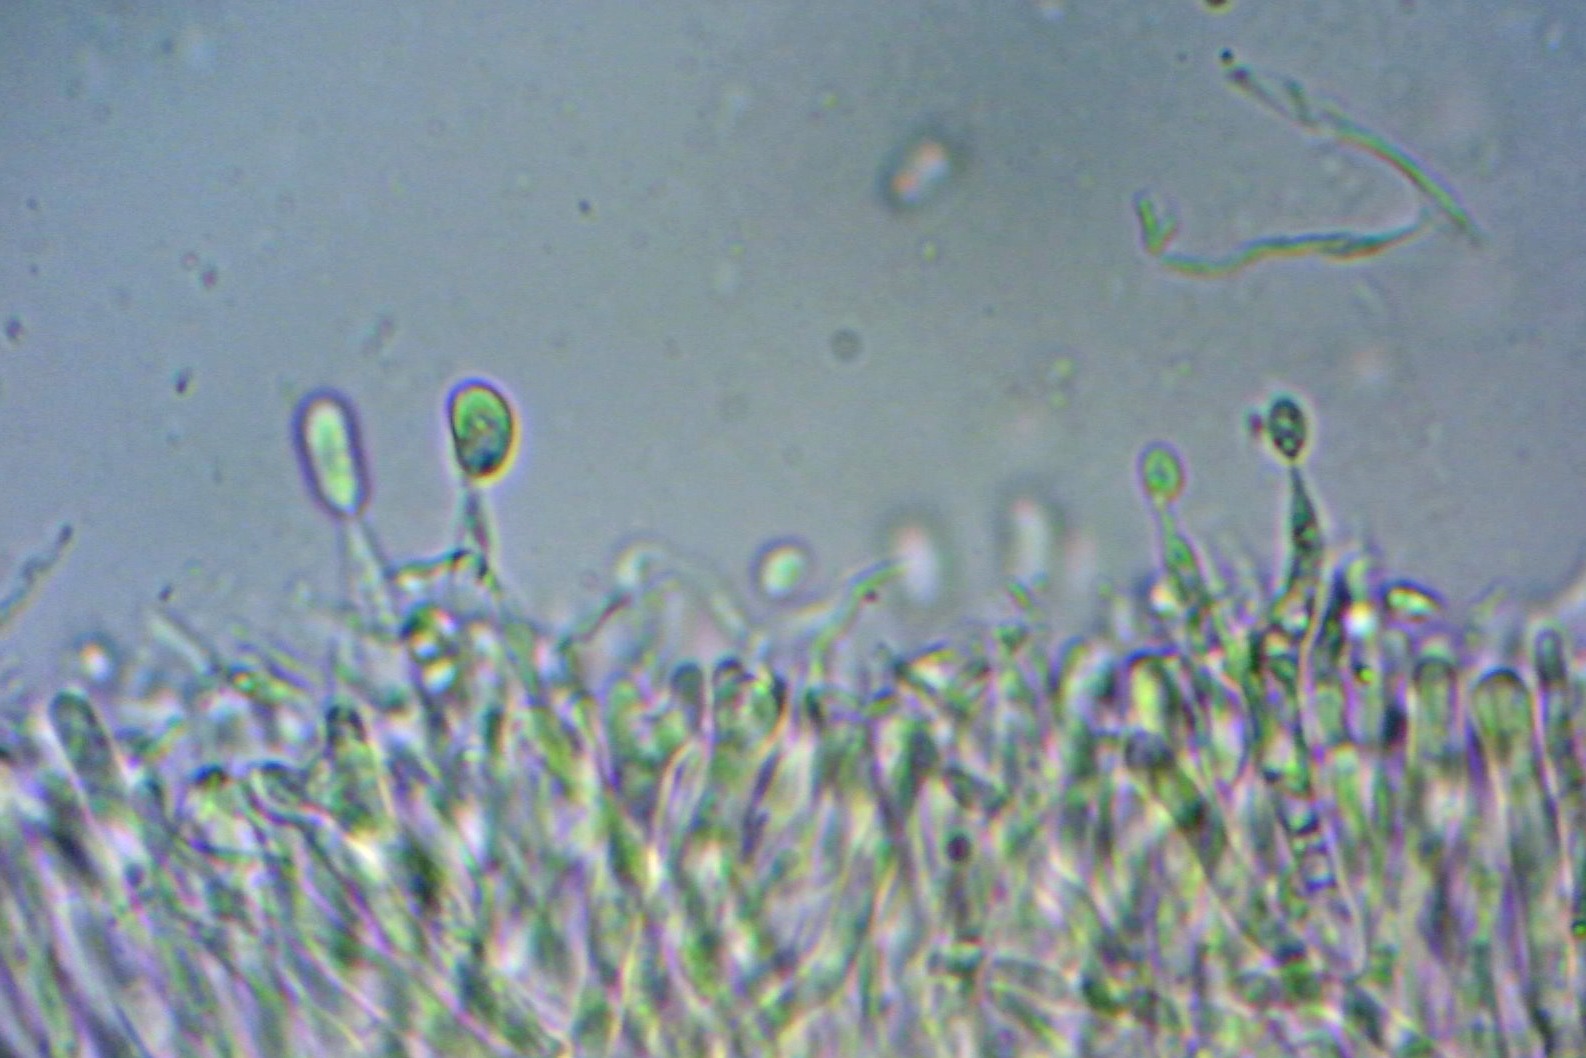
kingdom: Fungi
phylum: Basidiomycota
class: Dacrymycetes
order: Dacrymycetales
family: Dacrymycetaceae
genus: Calocera
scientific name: Calocera cornea
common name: liden guldgaffel
